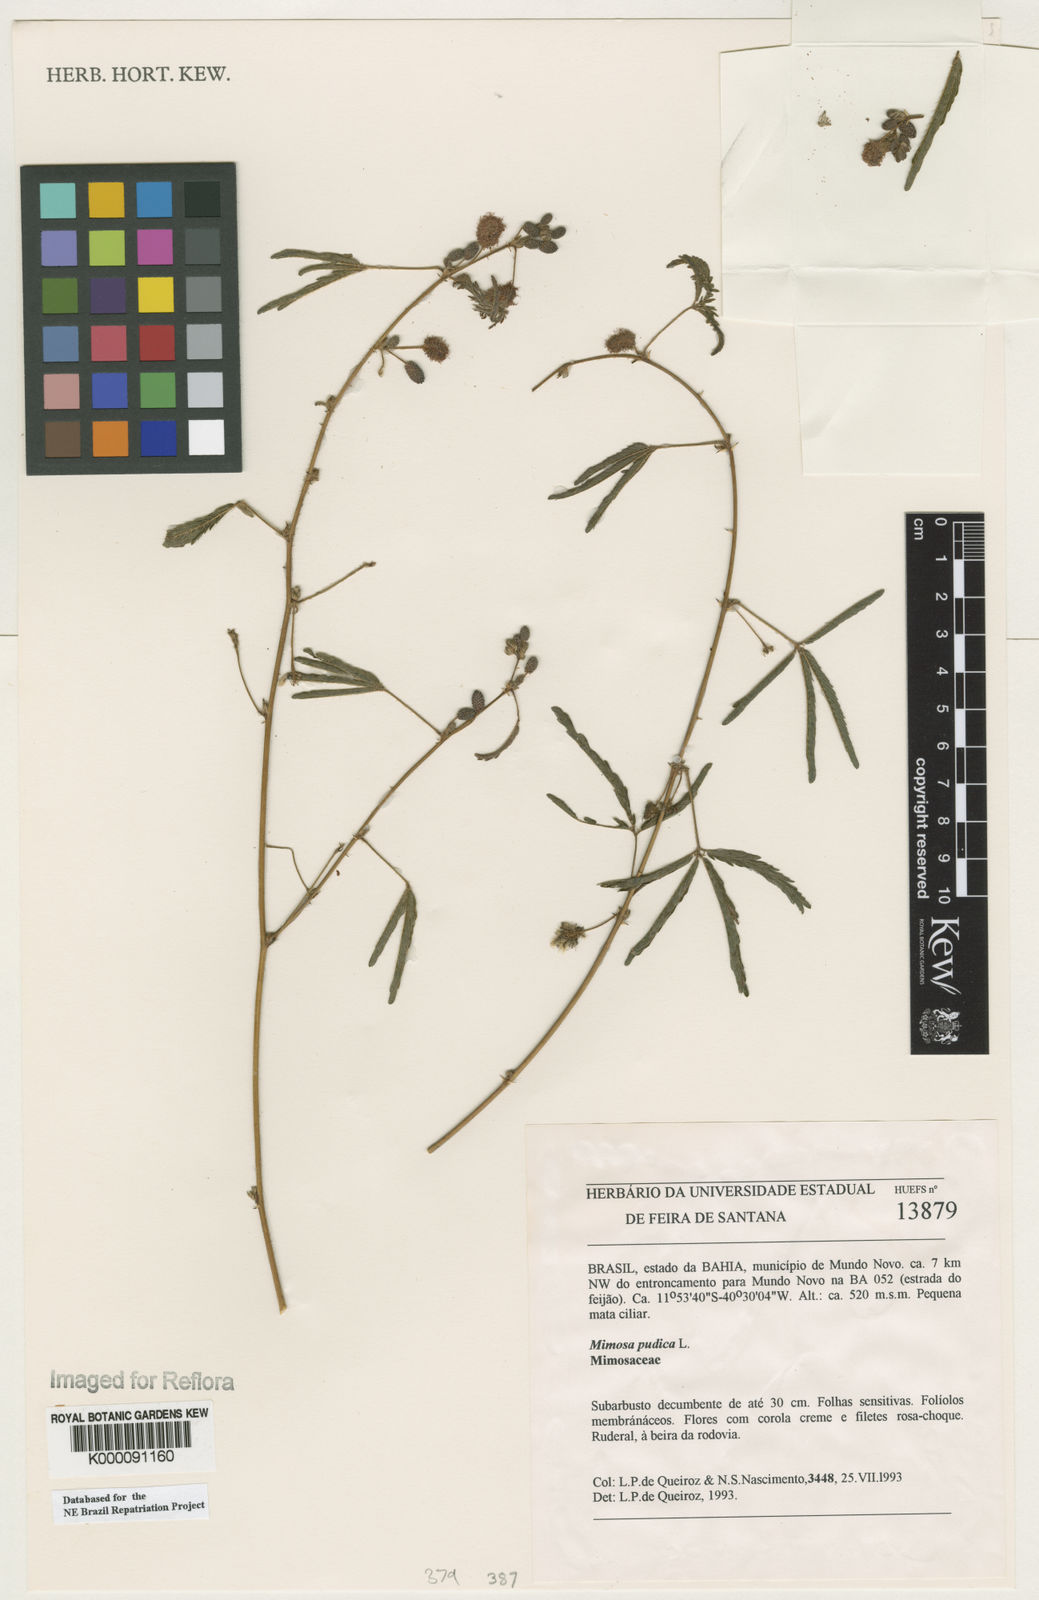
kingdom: Plantae
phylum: Tracheophyta
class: Magnoliopsida
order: Fabales
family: Fabaceae
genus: Mimosa
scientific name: Mimosa pudica
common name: Sensitive plant
